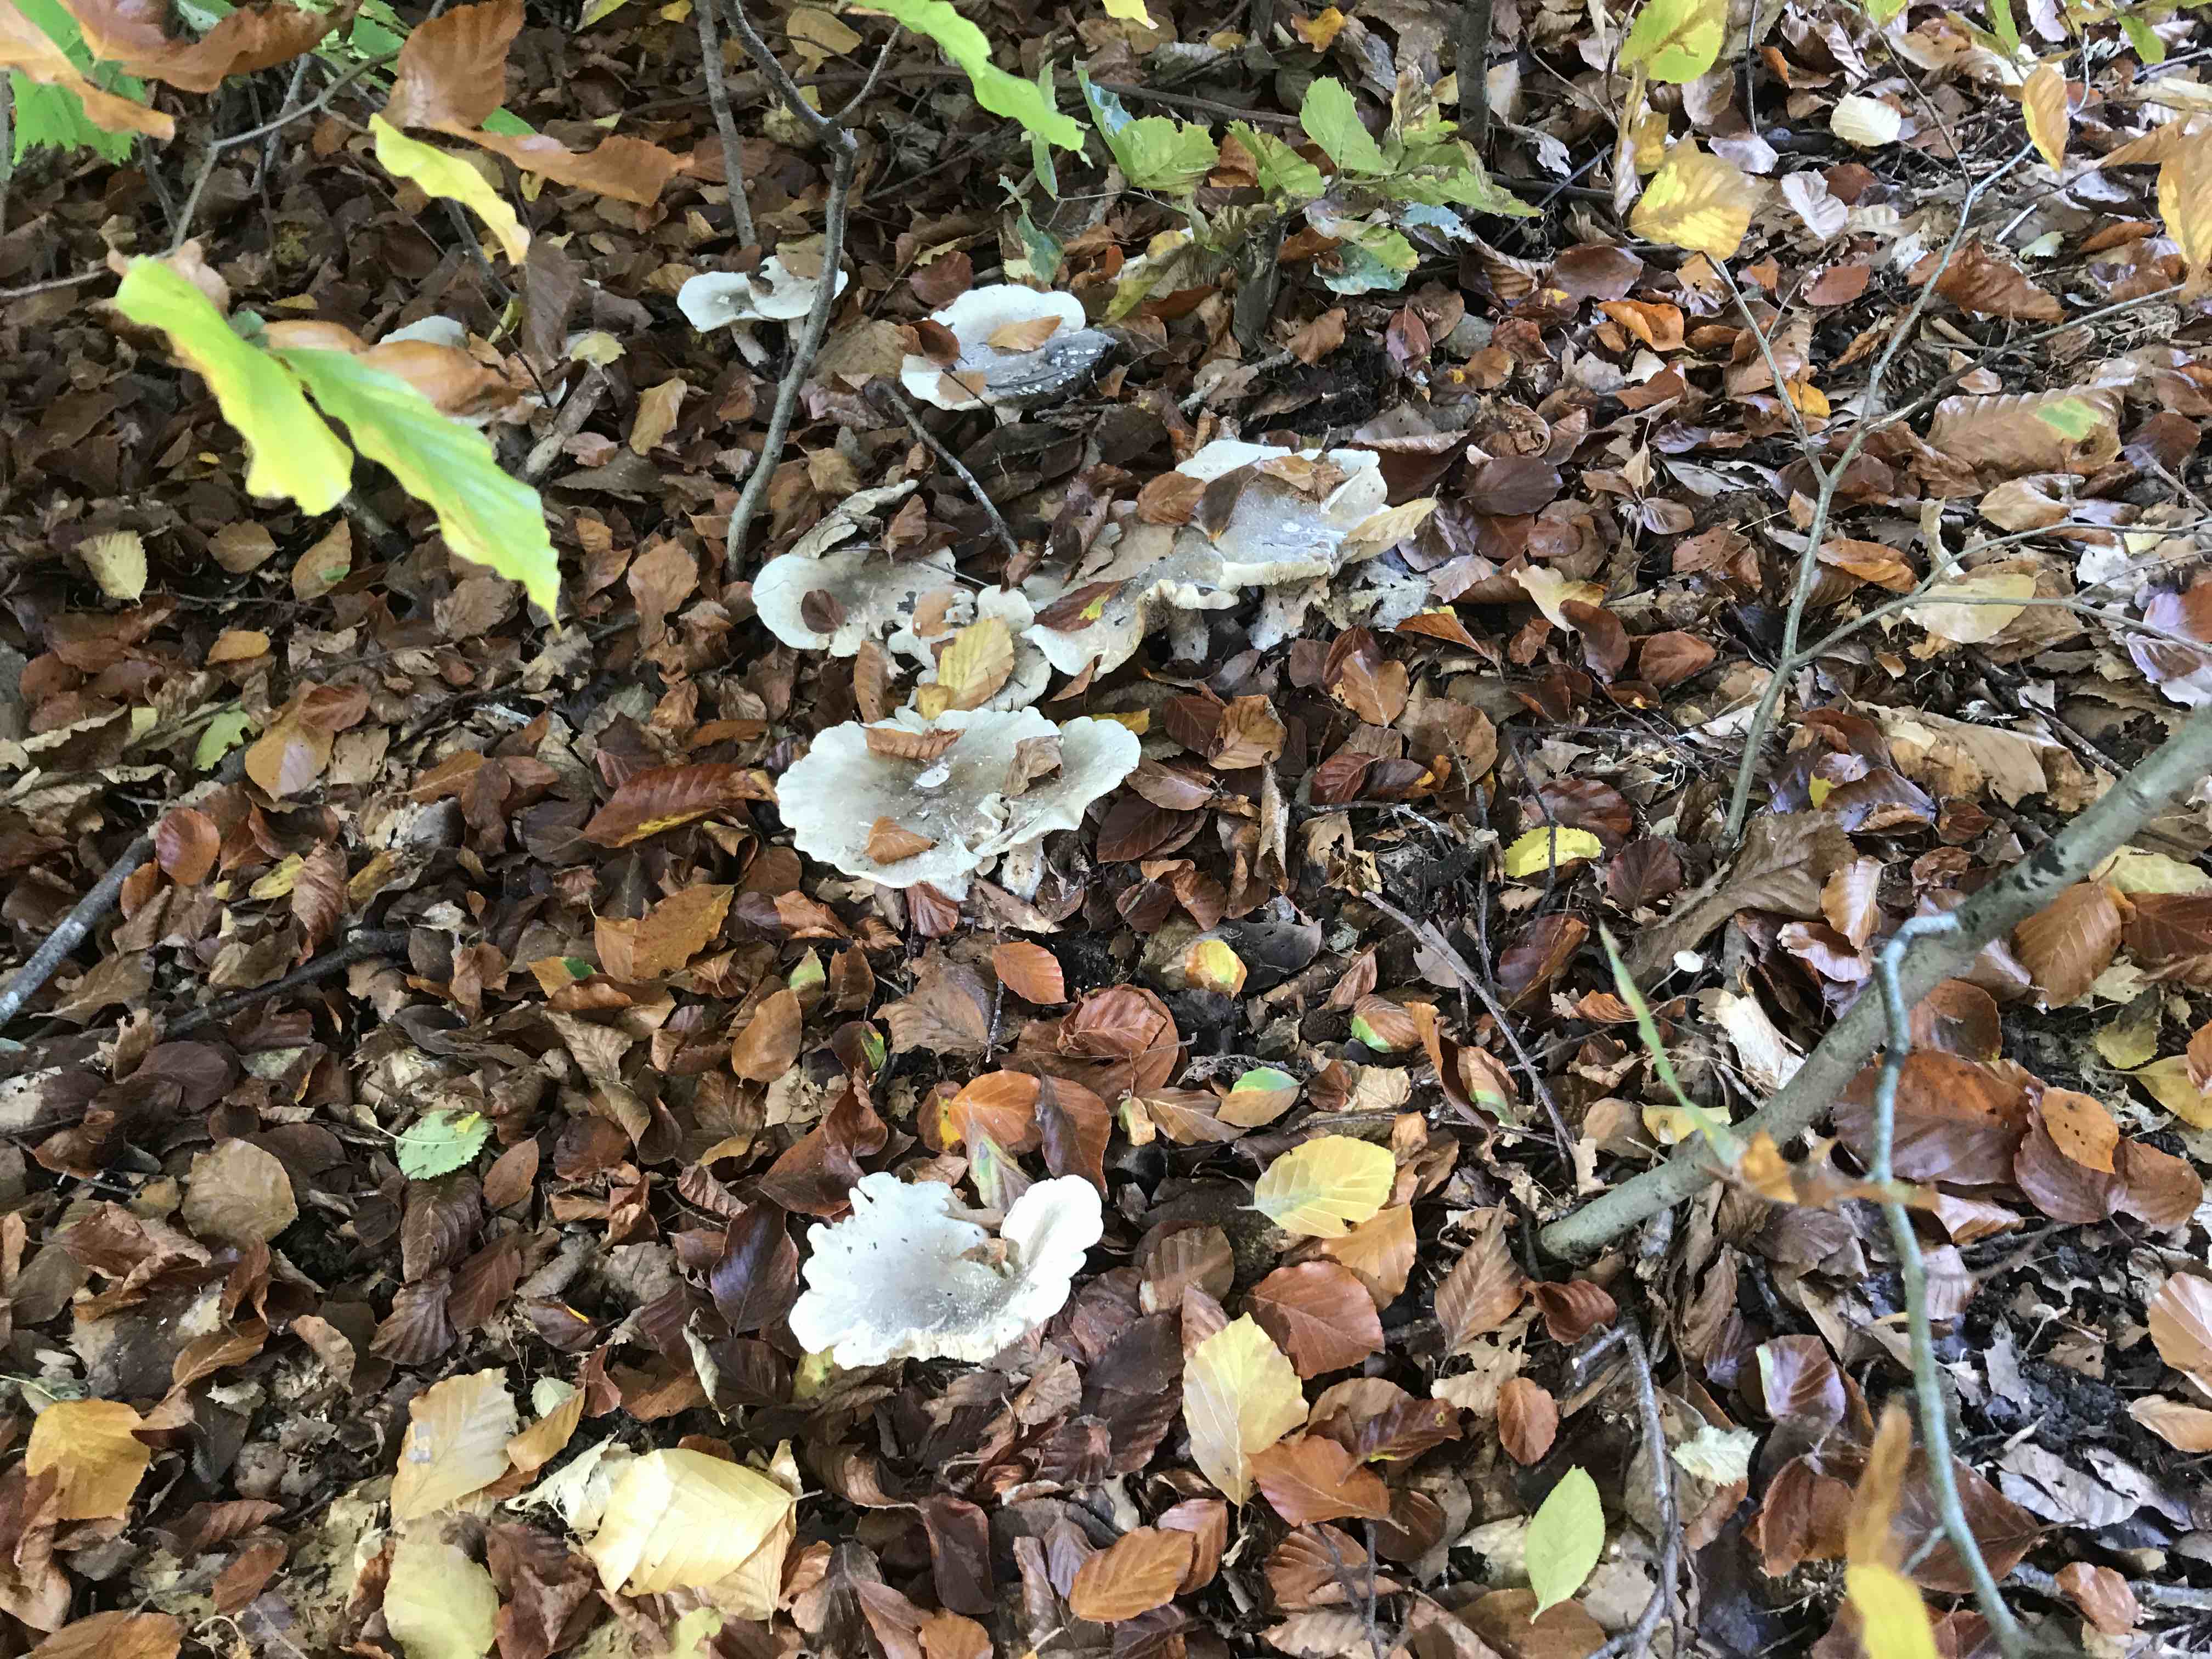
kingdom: Fungi
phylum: Basidiomycota
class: Agaricomycetes
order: Agaricales
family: Tricholomataceae
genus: Clitocybe
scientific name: Clitocybe nebularis
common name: tåge-tragthat
